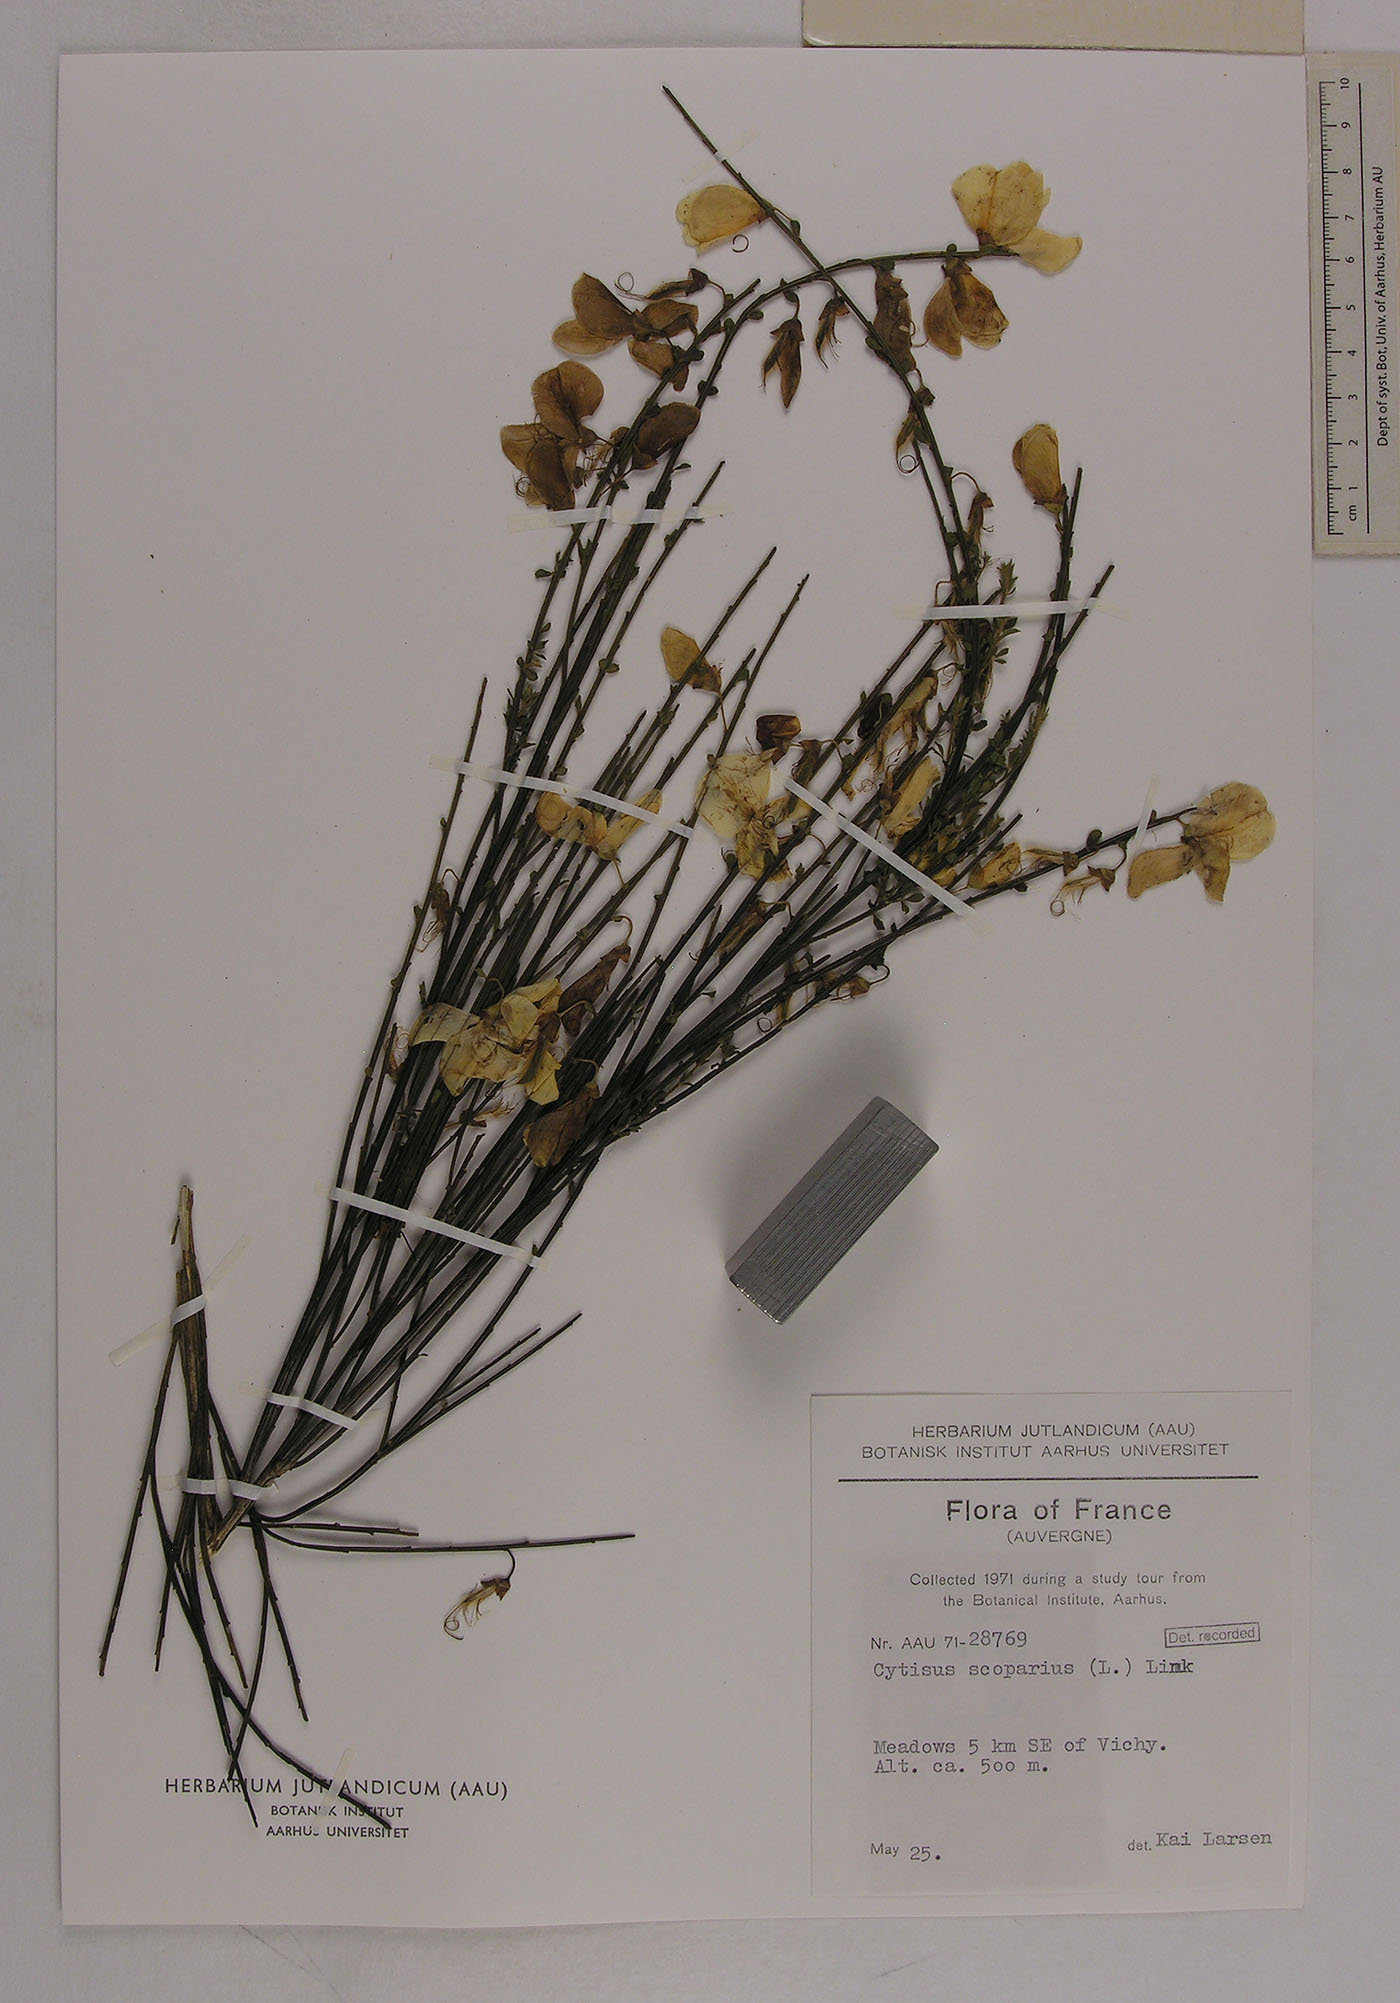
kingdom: Plantae
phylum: Tracheophyta
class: Magnoliopsida
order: Fabales
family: Fabaceae
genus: Cytisus
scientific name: Cytisus scoparius
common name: Scotch broom
